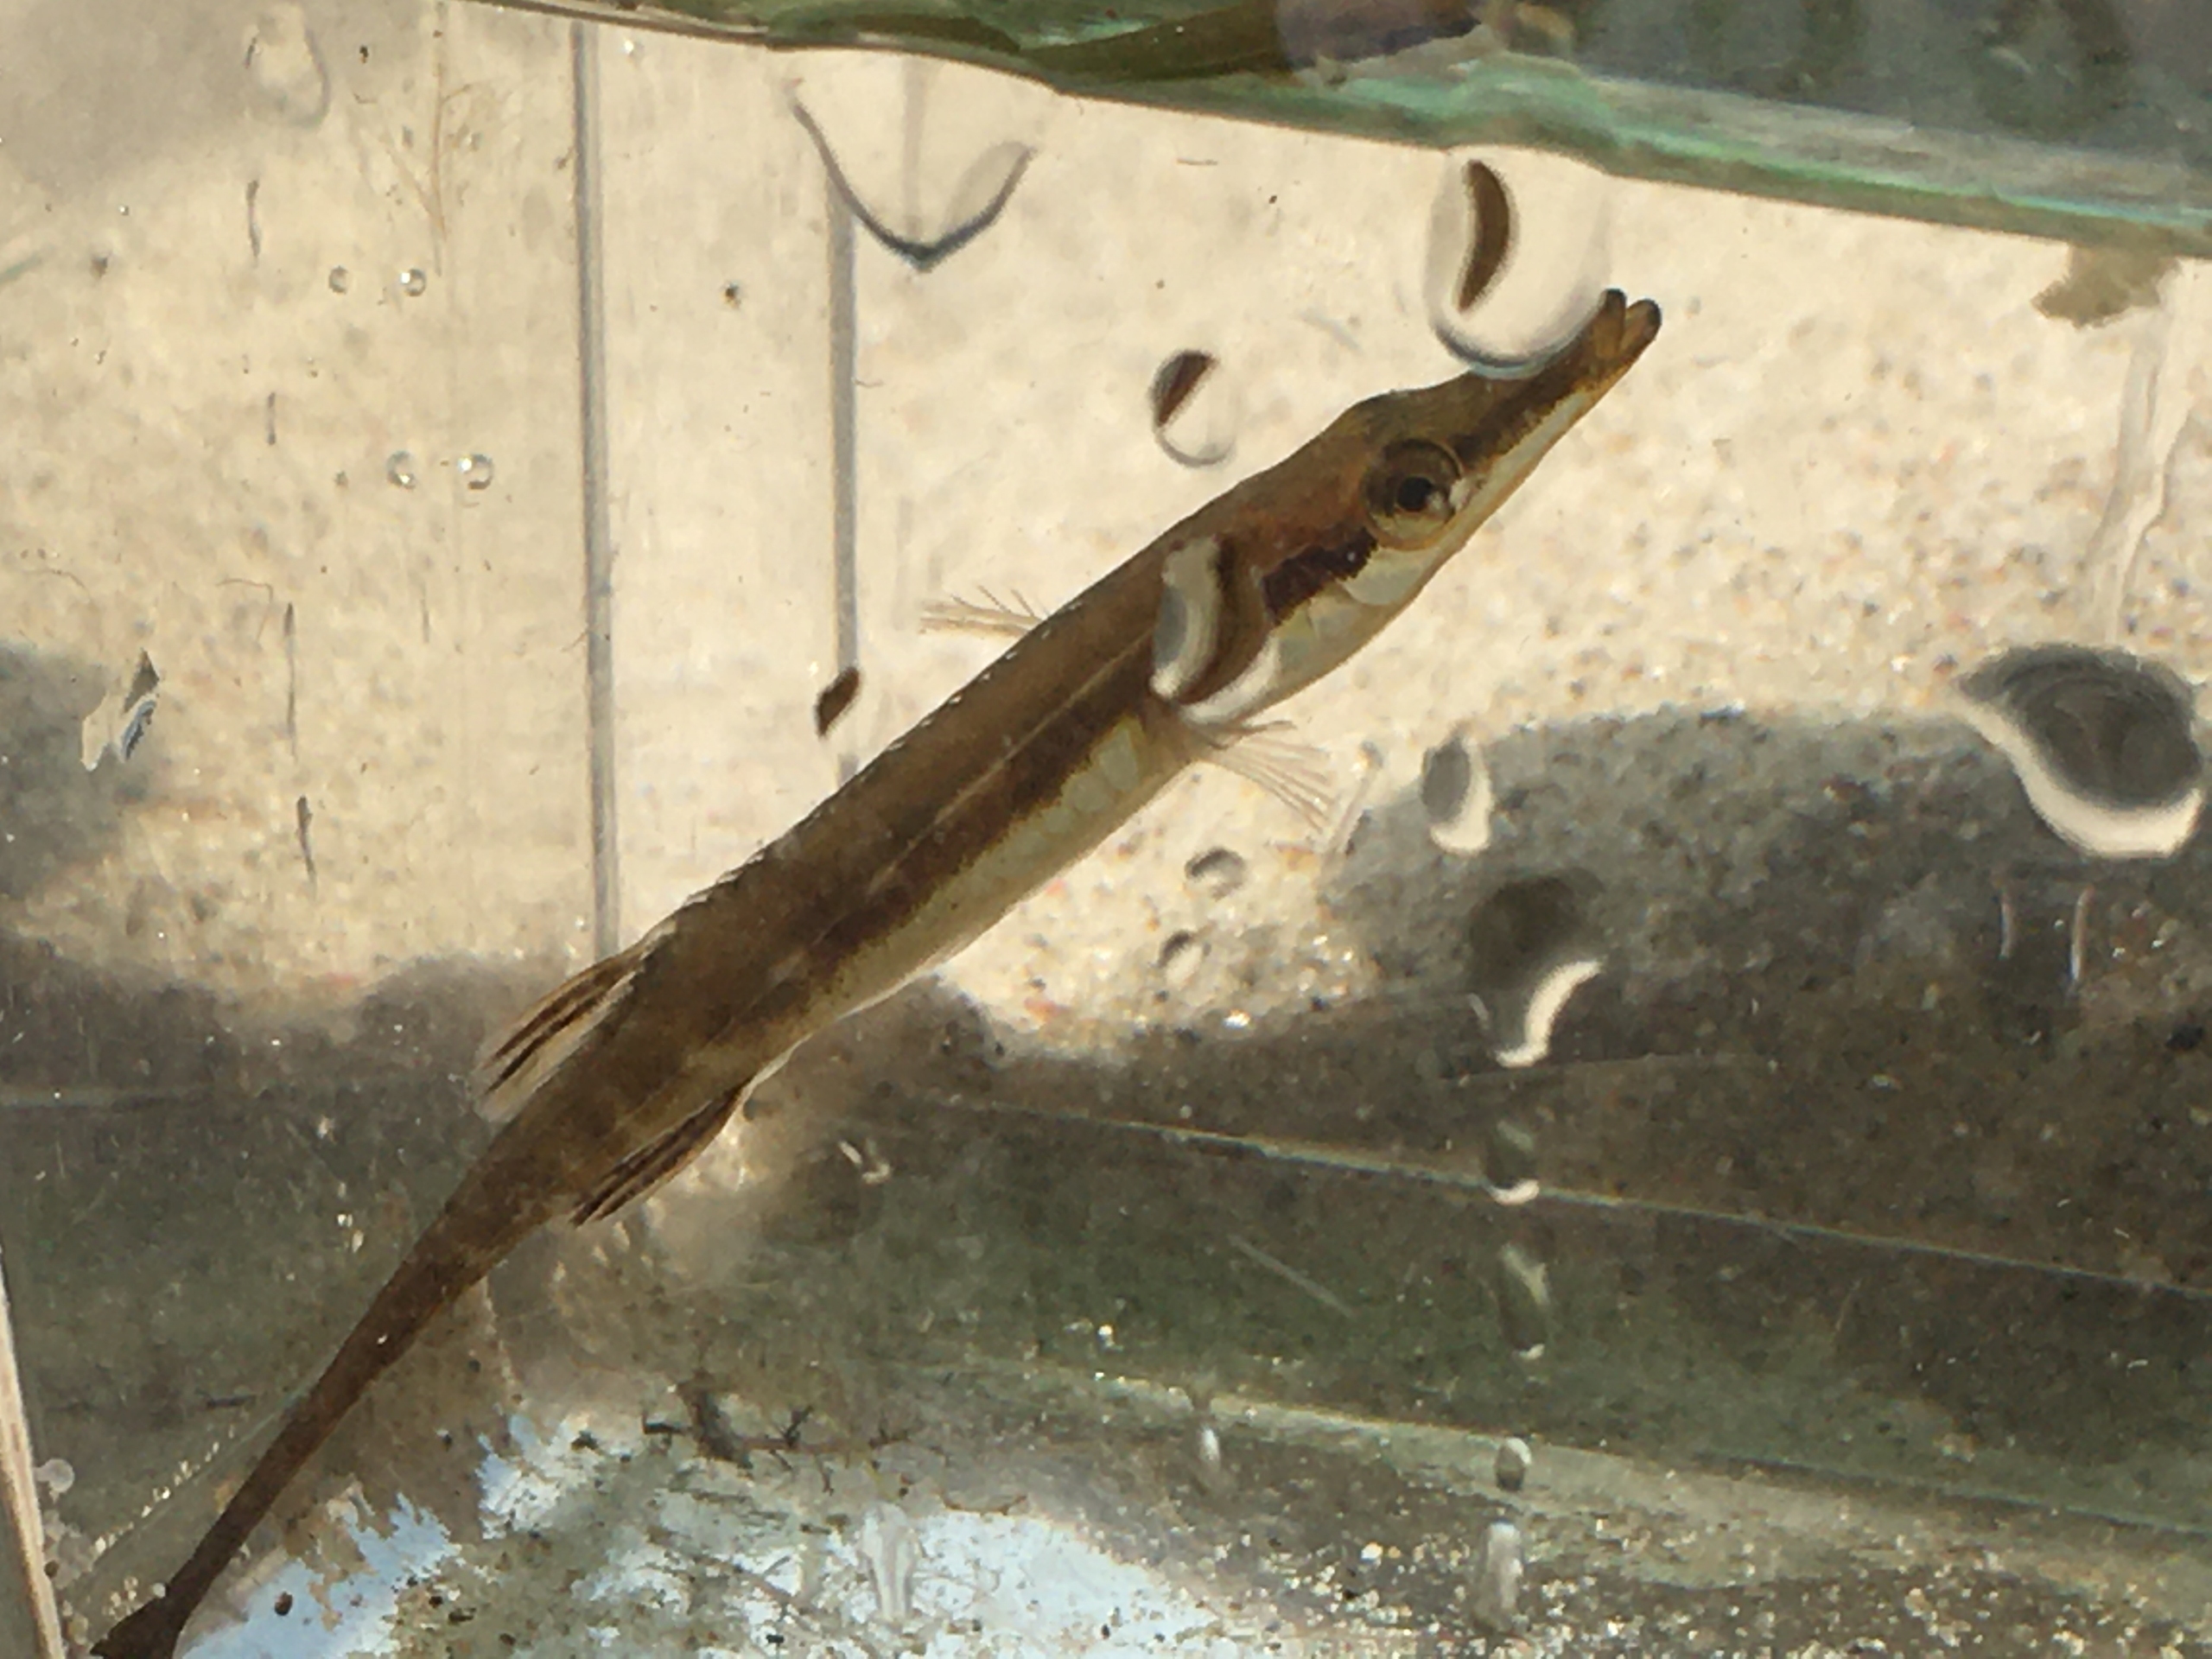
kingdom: Animalia
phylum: Chordata
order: Gasterosteiformes
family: Gasterosteidae
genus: Spinachia
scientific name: Spinachia spinachia
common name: Tangsnarre
